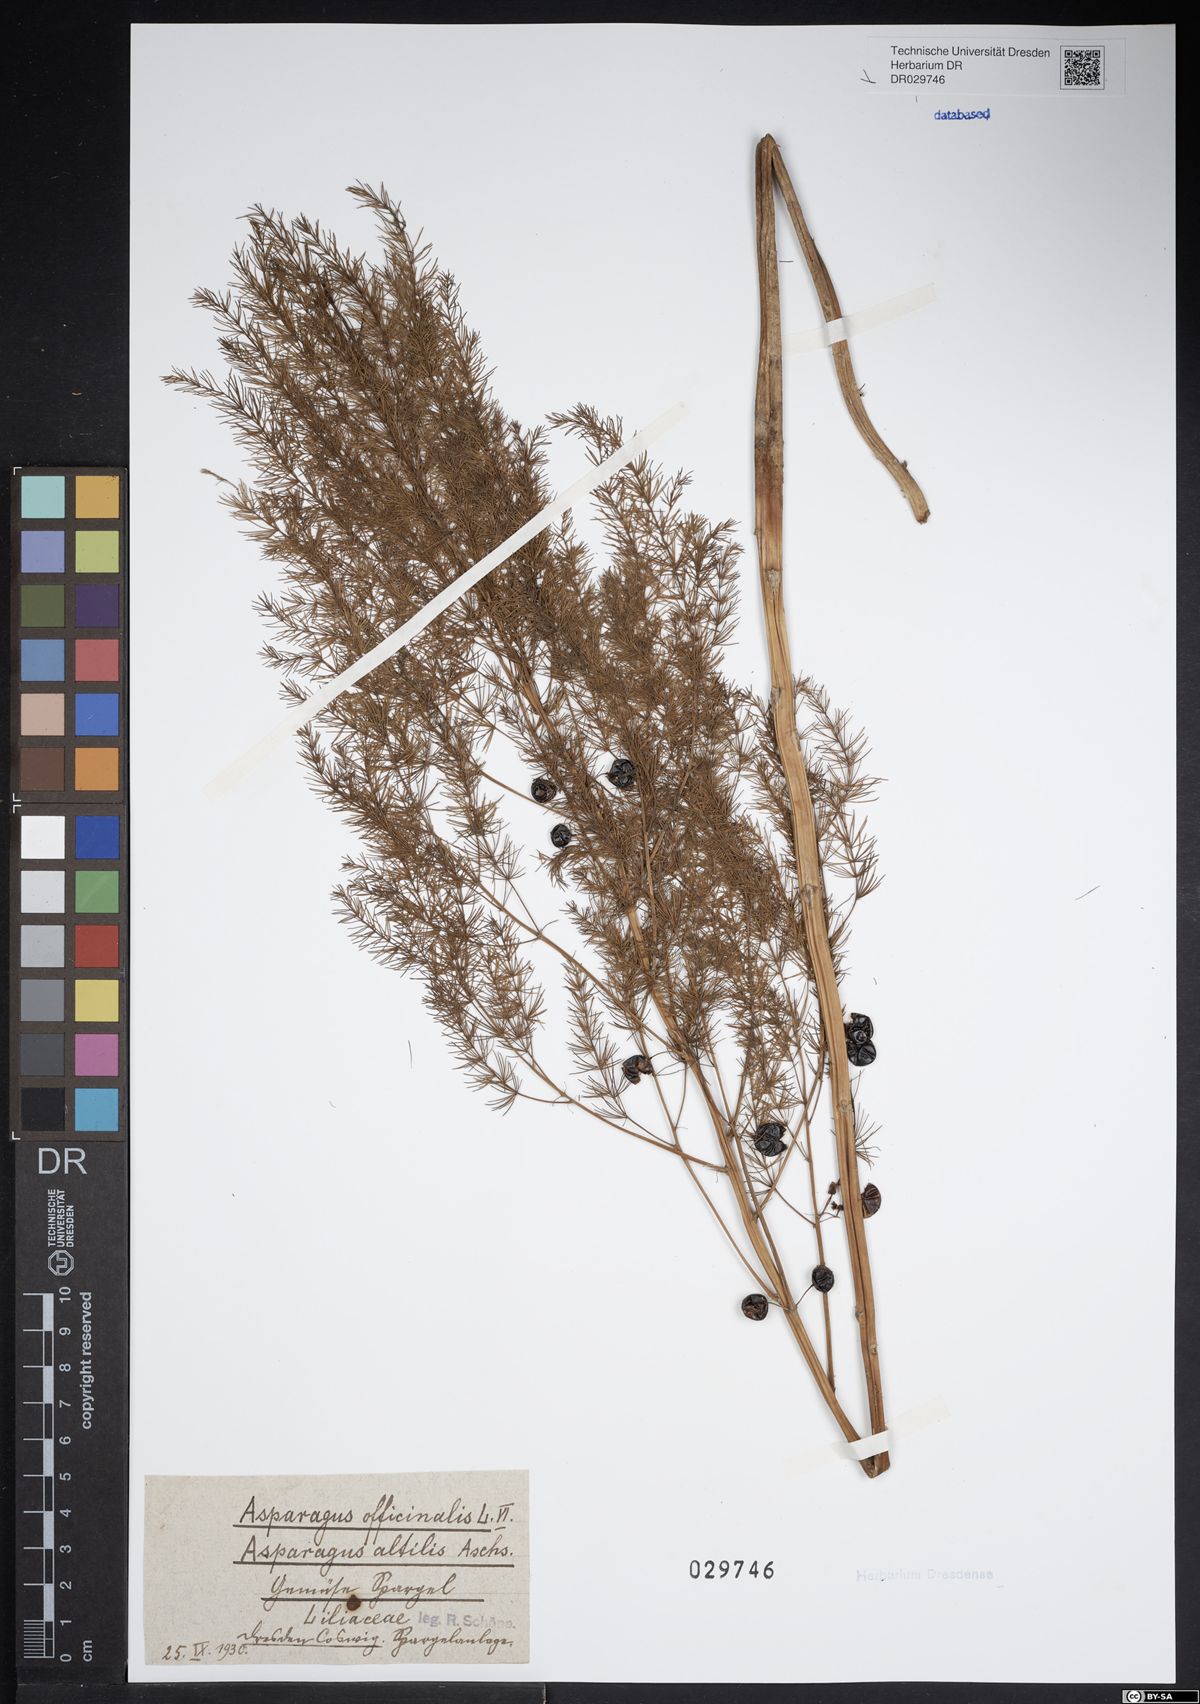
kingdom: Plantae
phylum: Tracheophyta
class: Liliopsida
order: Asparagales
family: Asparagaceae
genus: Asparagus
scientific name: Asparagus officinalis
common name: Garden asparagus
